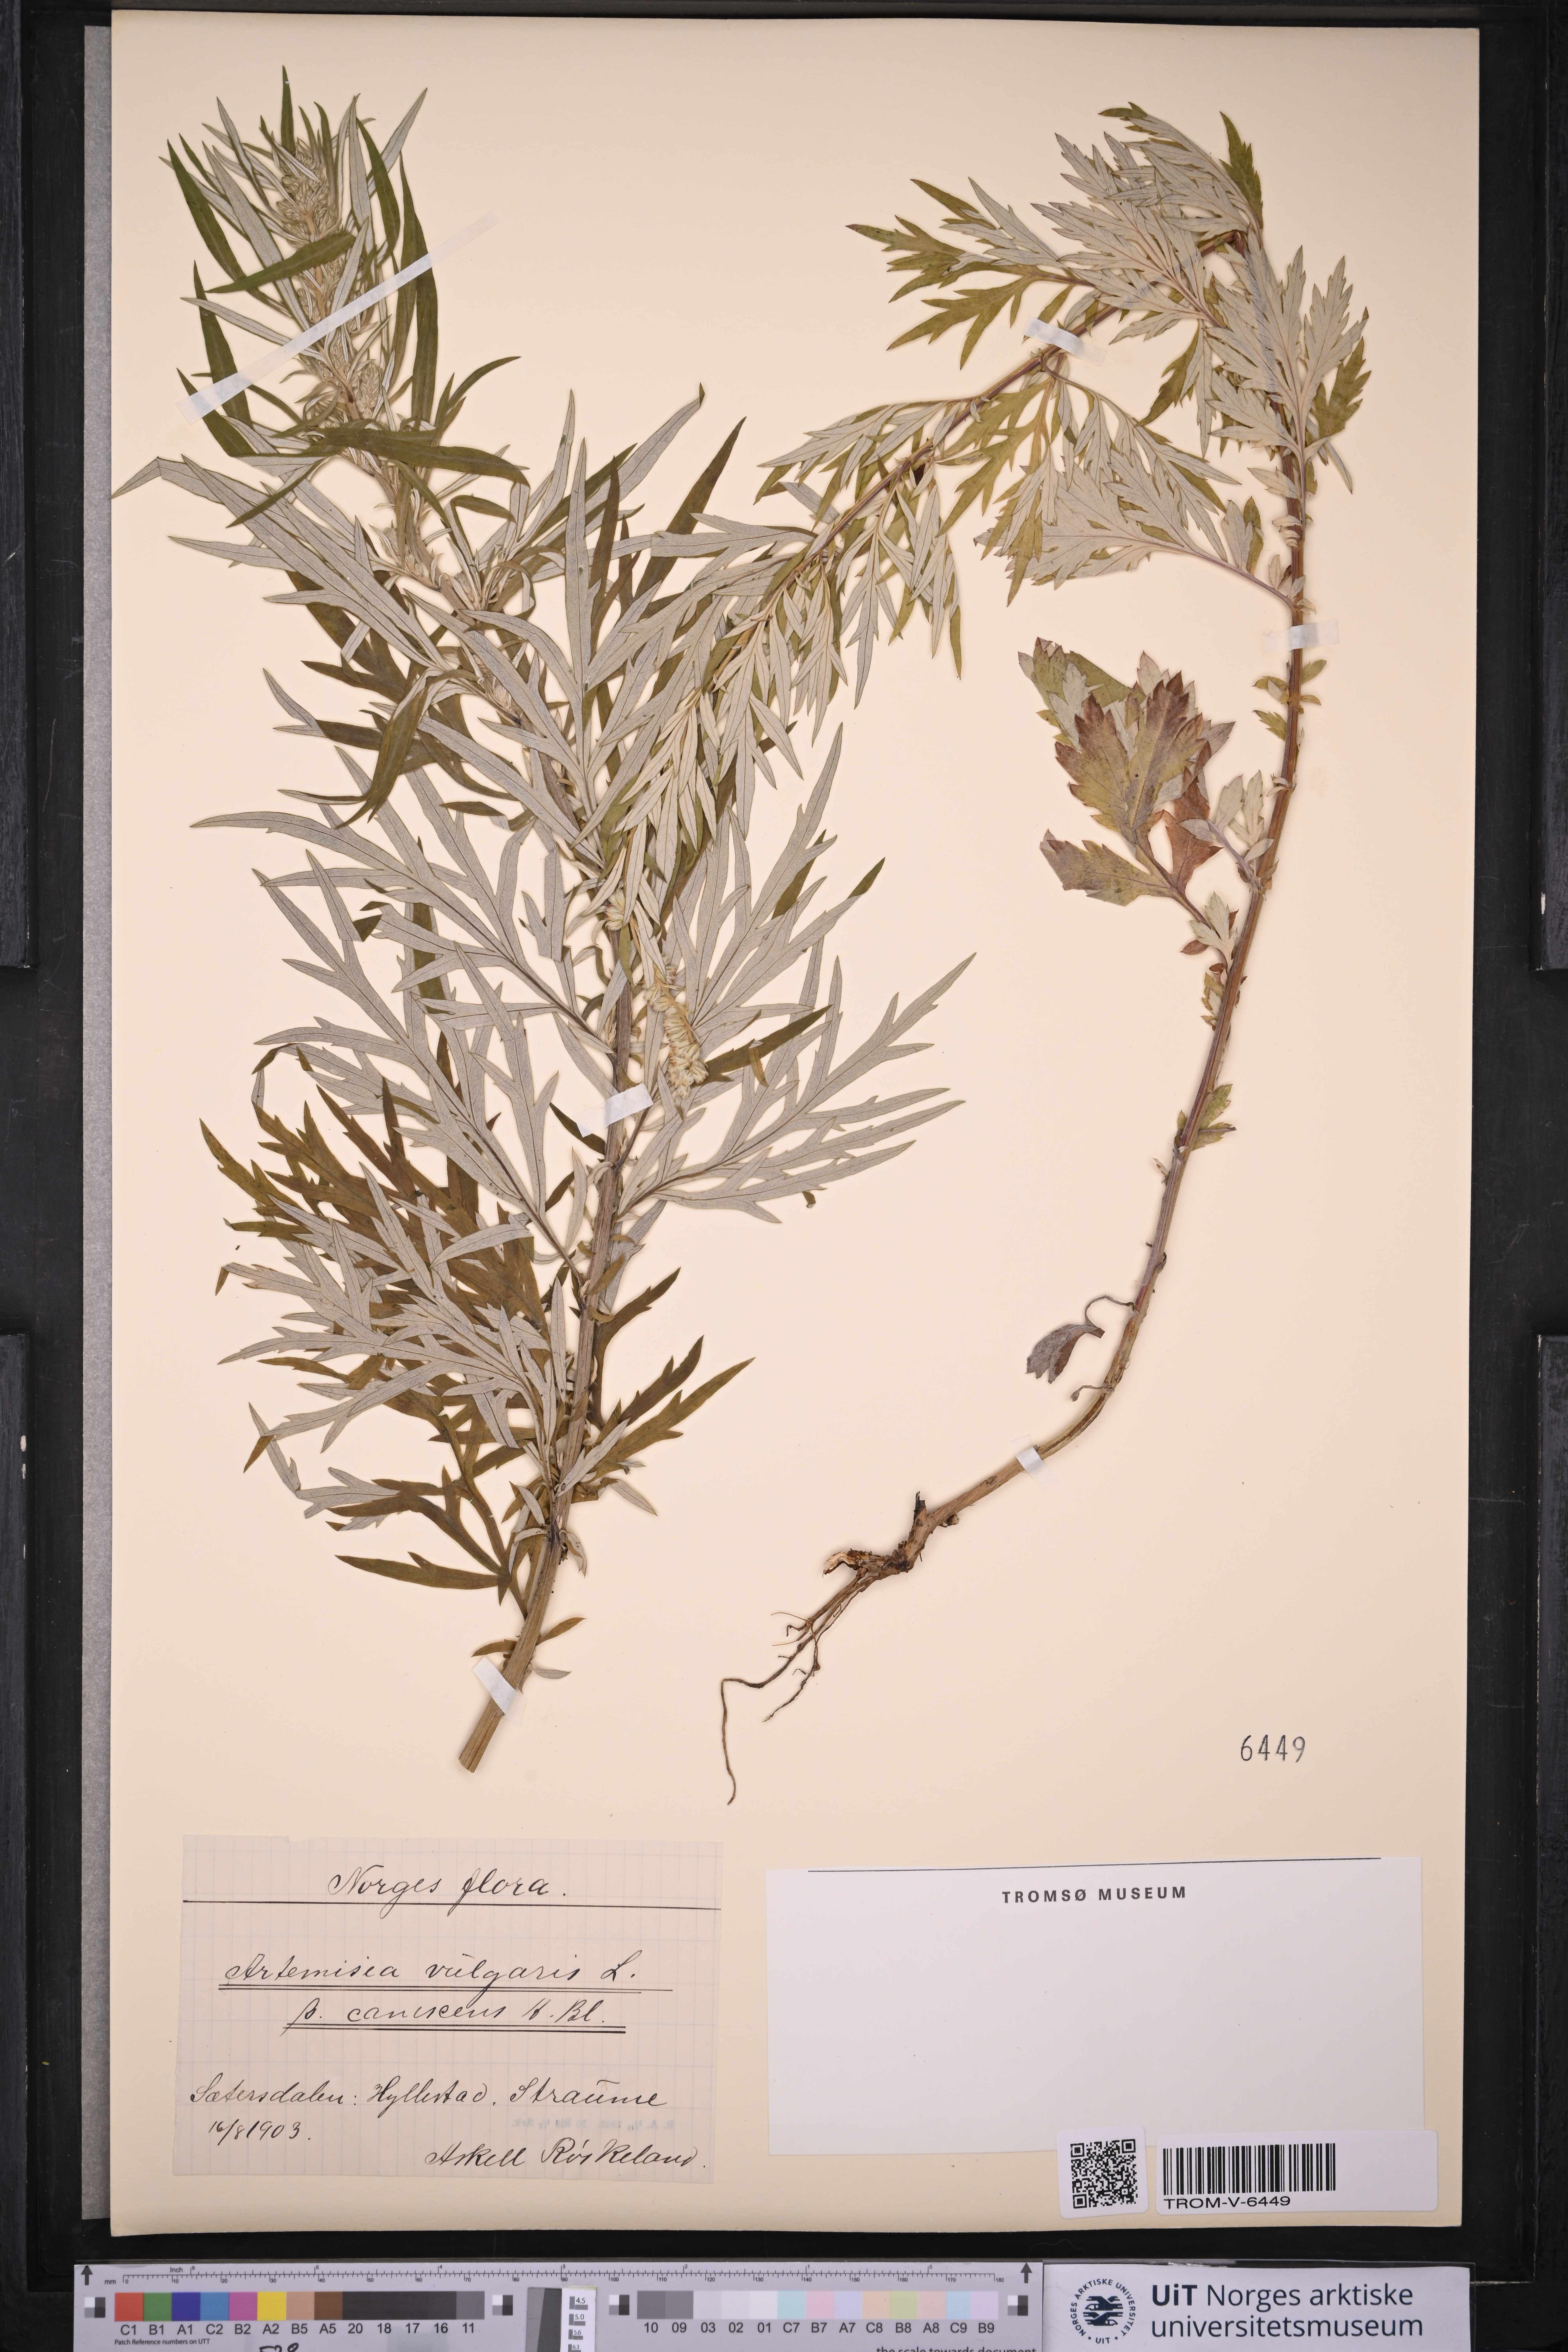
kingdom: Plantae
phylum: Tracheophyta
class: Magnoliopsida
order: Asterales
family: Asteraceae
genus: Artemisia
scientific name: Artemisia vulgaris
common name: Mugwort
